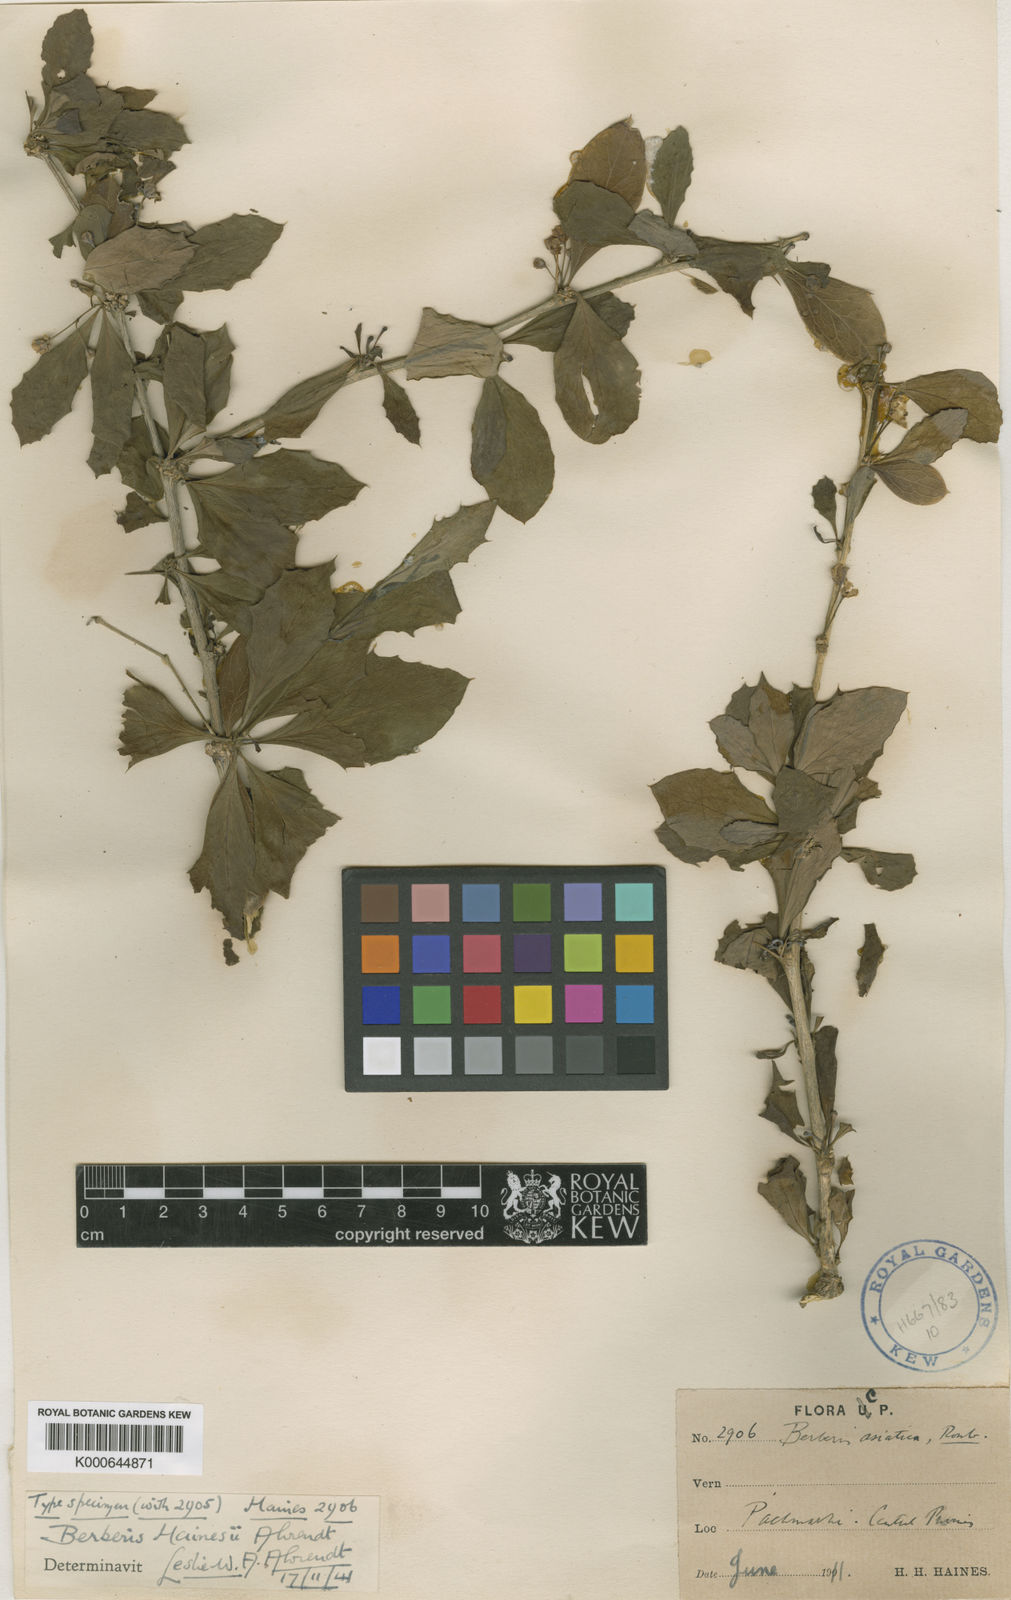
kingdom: Plantae
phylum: Tracheophyta
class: Magnoliopsida
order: Ranunculales
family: Berberidaceae
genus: Berberis
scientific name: Berberis hainesii
